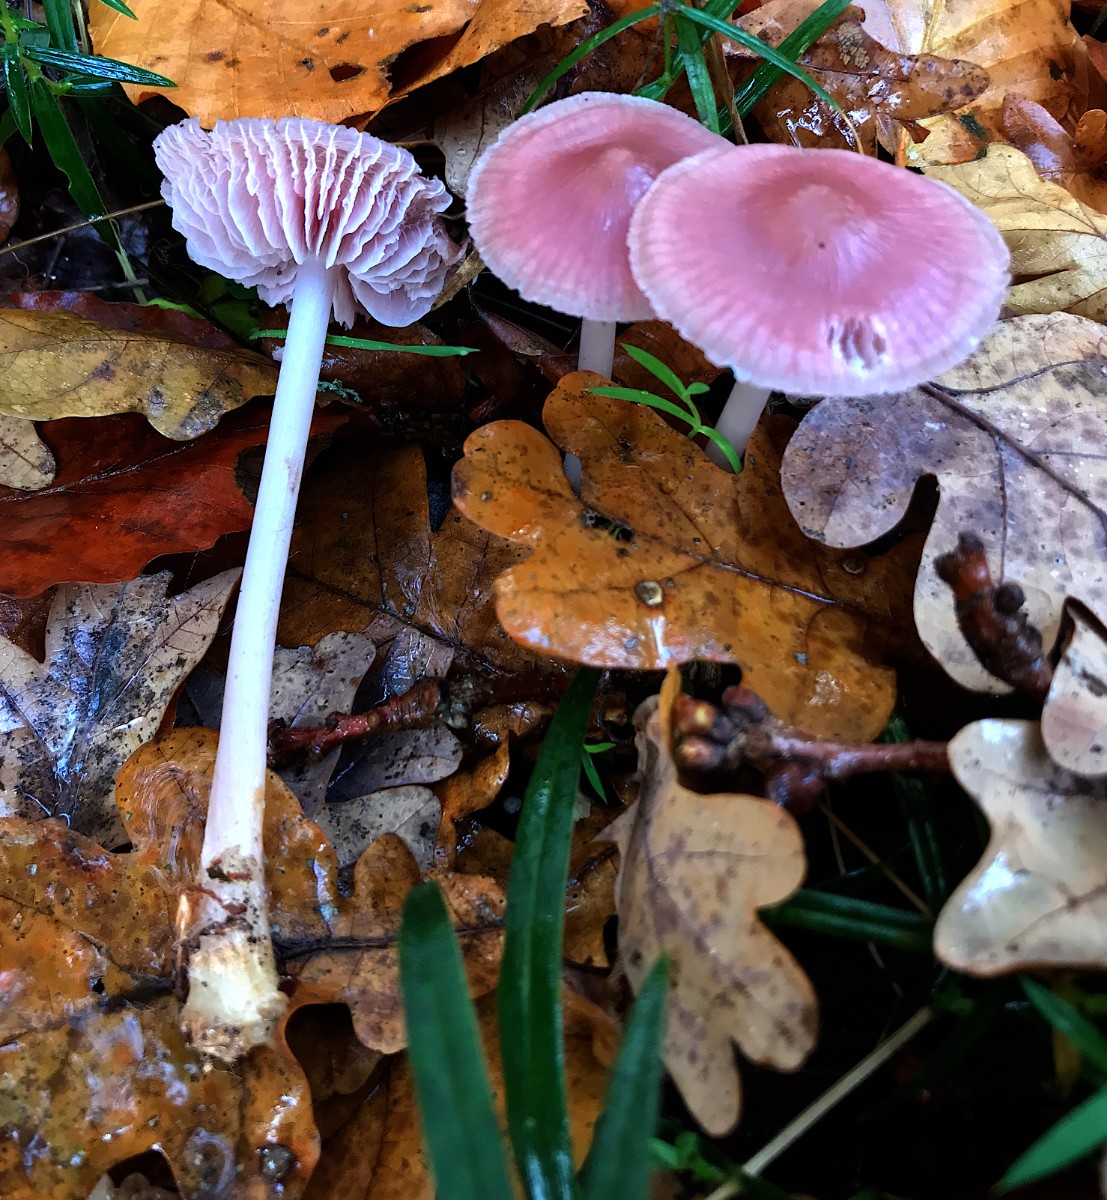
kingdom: Fungi
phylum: Basidiomycota
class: Agaricomycetes
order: Agaricales
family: Mycenaceae
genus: Mycena
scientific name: Mycena rosea
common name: rosa huesvamp
